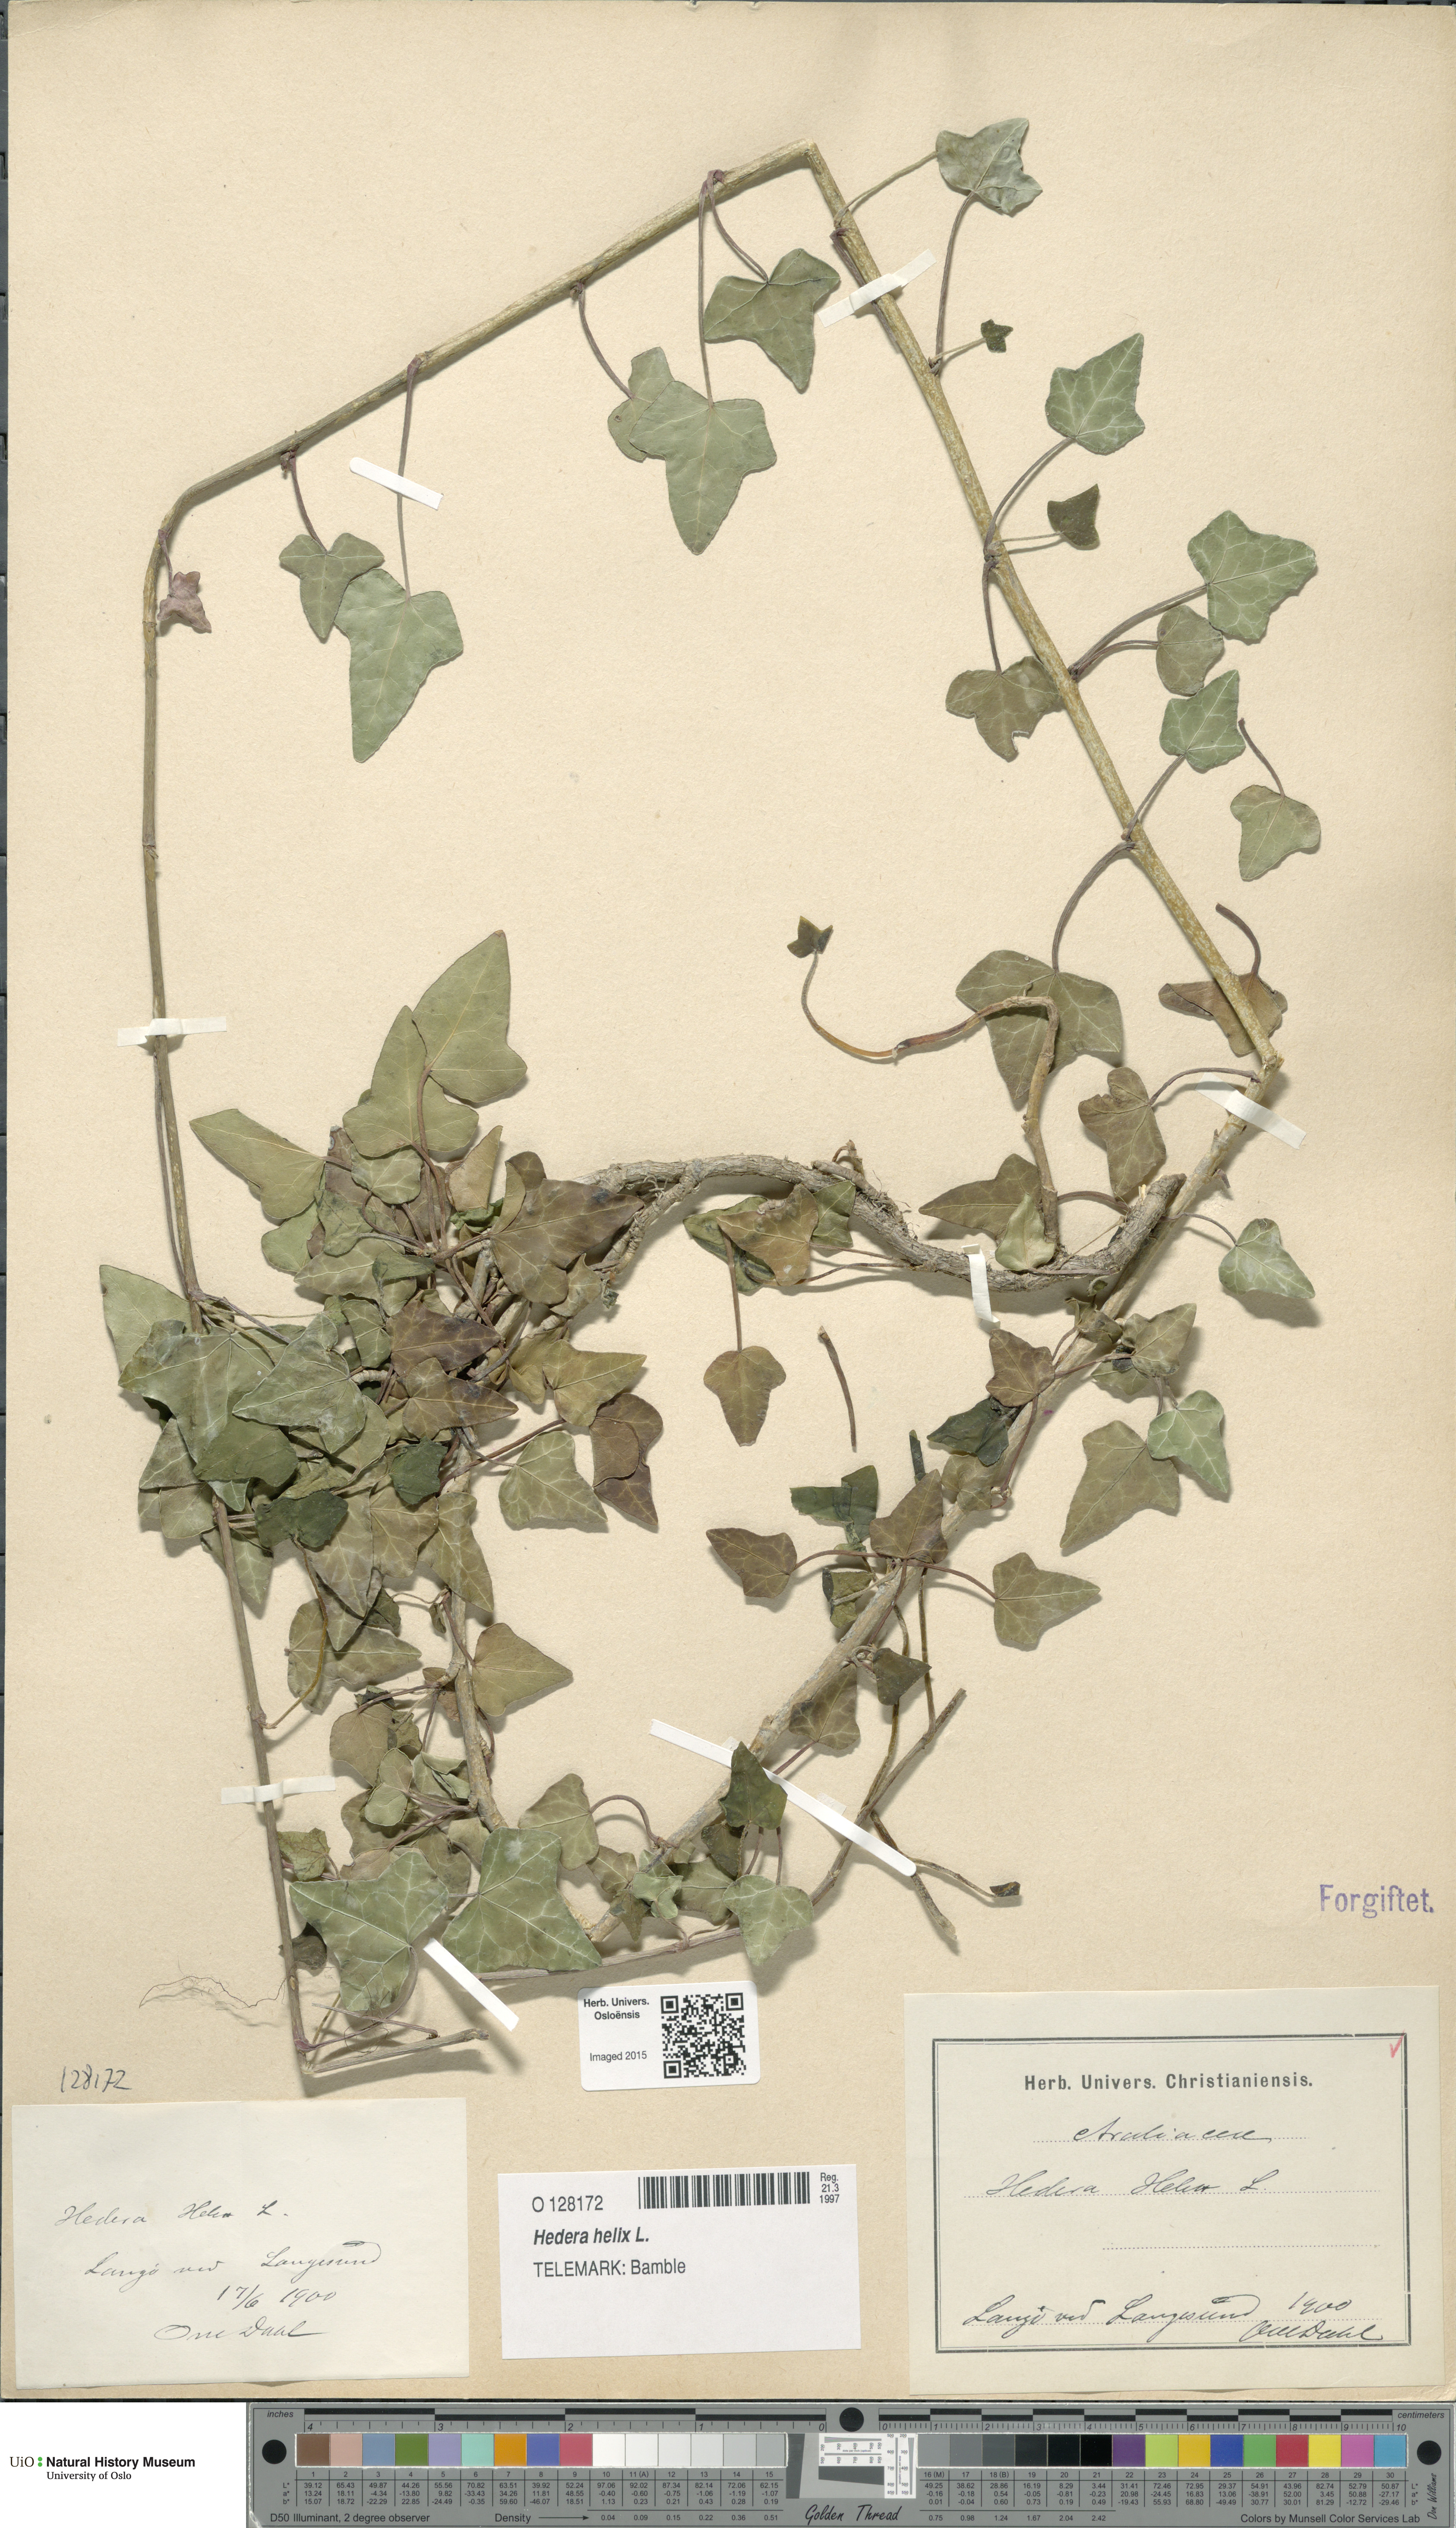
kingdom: Plantae
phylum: Tracheophyta
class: Magnoliopsida
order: Apiales
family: Araliaceae
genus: Hedera
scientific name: Hedera helix
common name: Ivy
